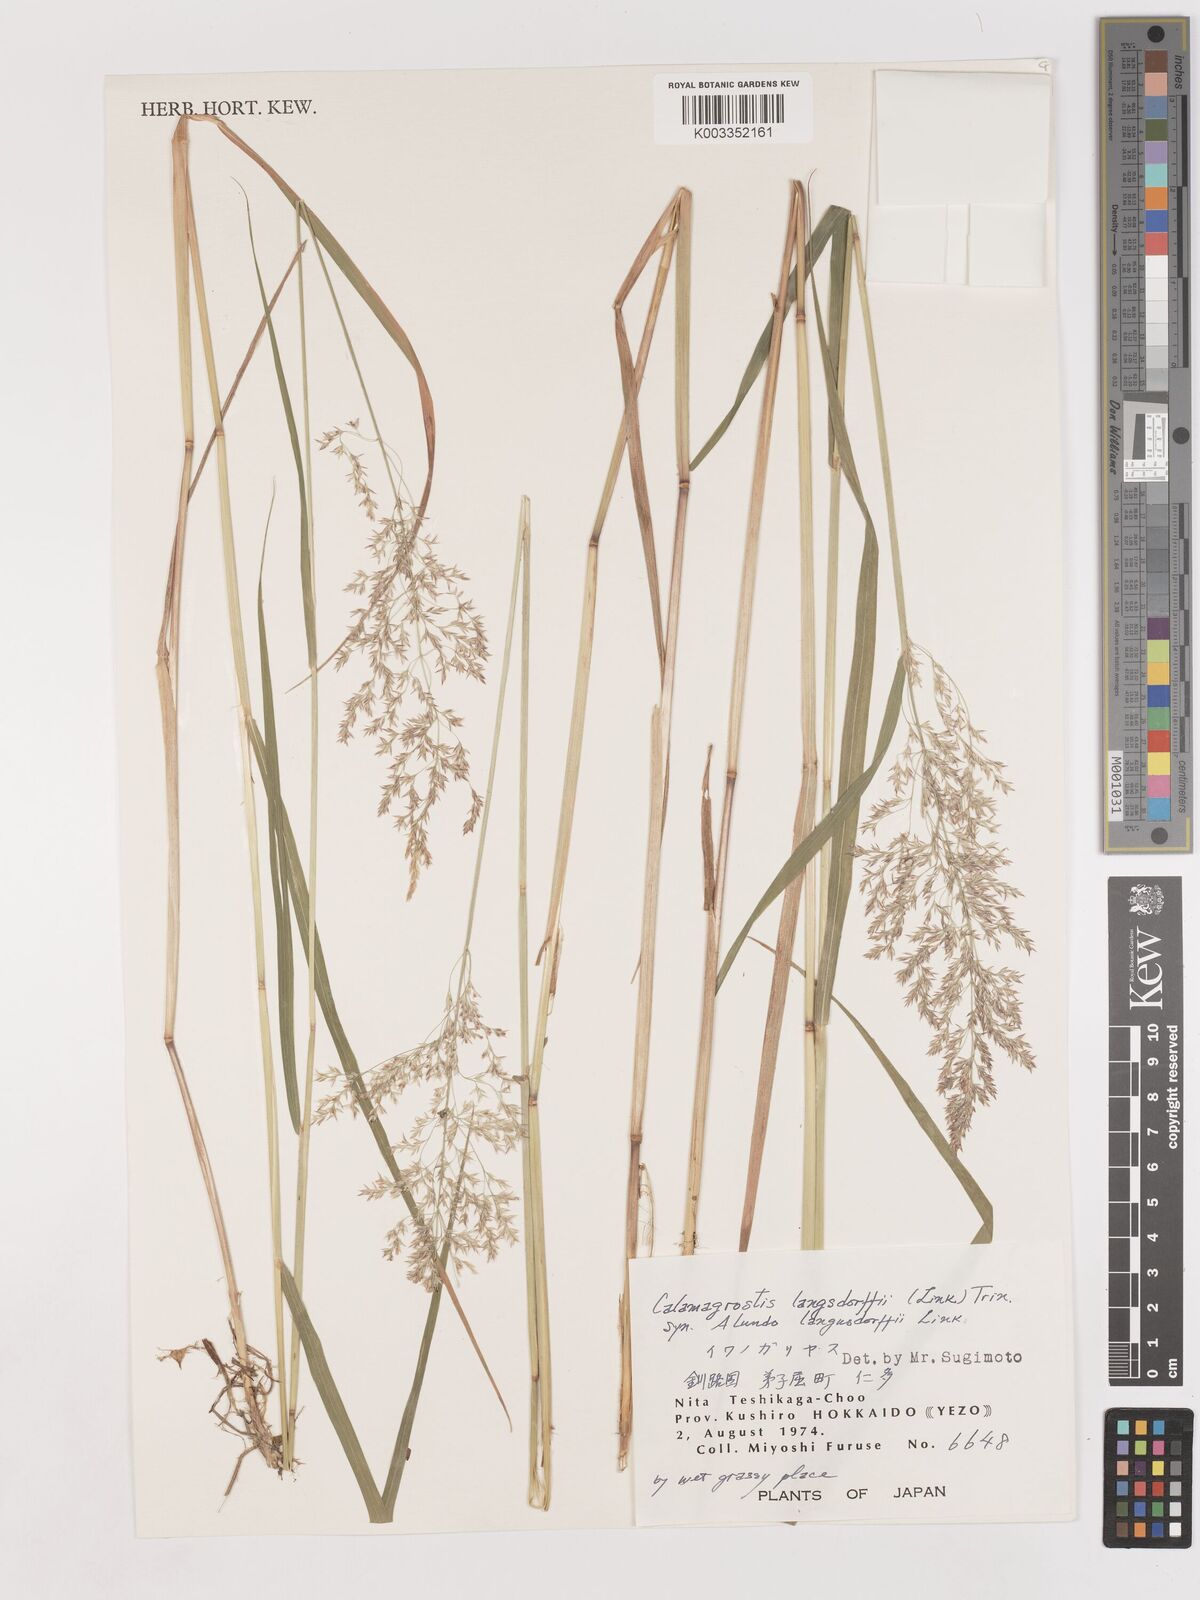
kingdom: Plantae
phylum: Tracheophyta
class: Liliopsida
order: Poales
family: Poaceae
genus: Calamagrostis
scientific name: Calamagrostis purpurea
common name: Scandinavian small-reed
